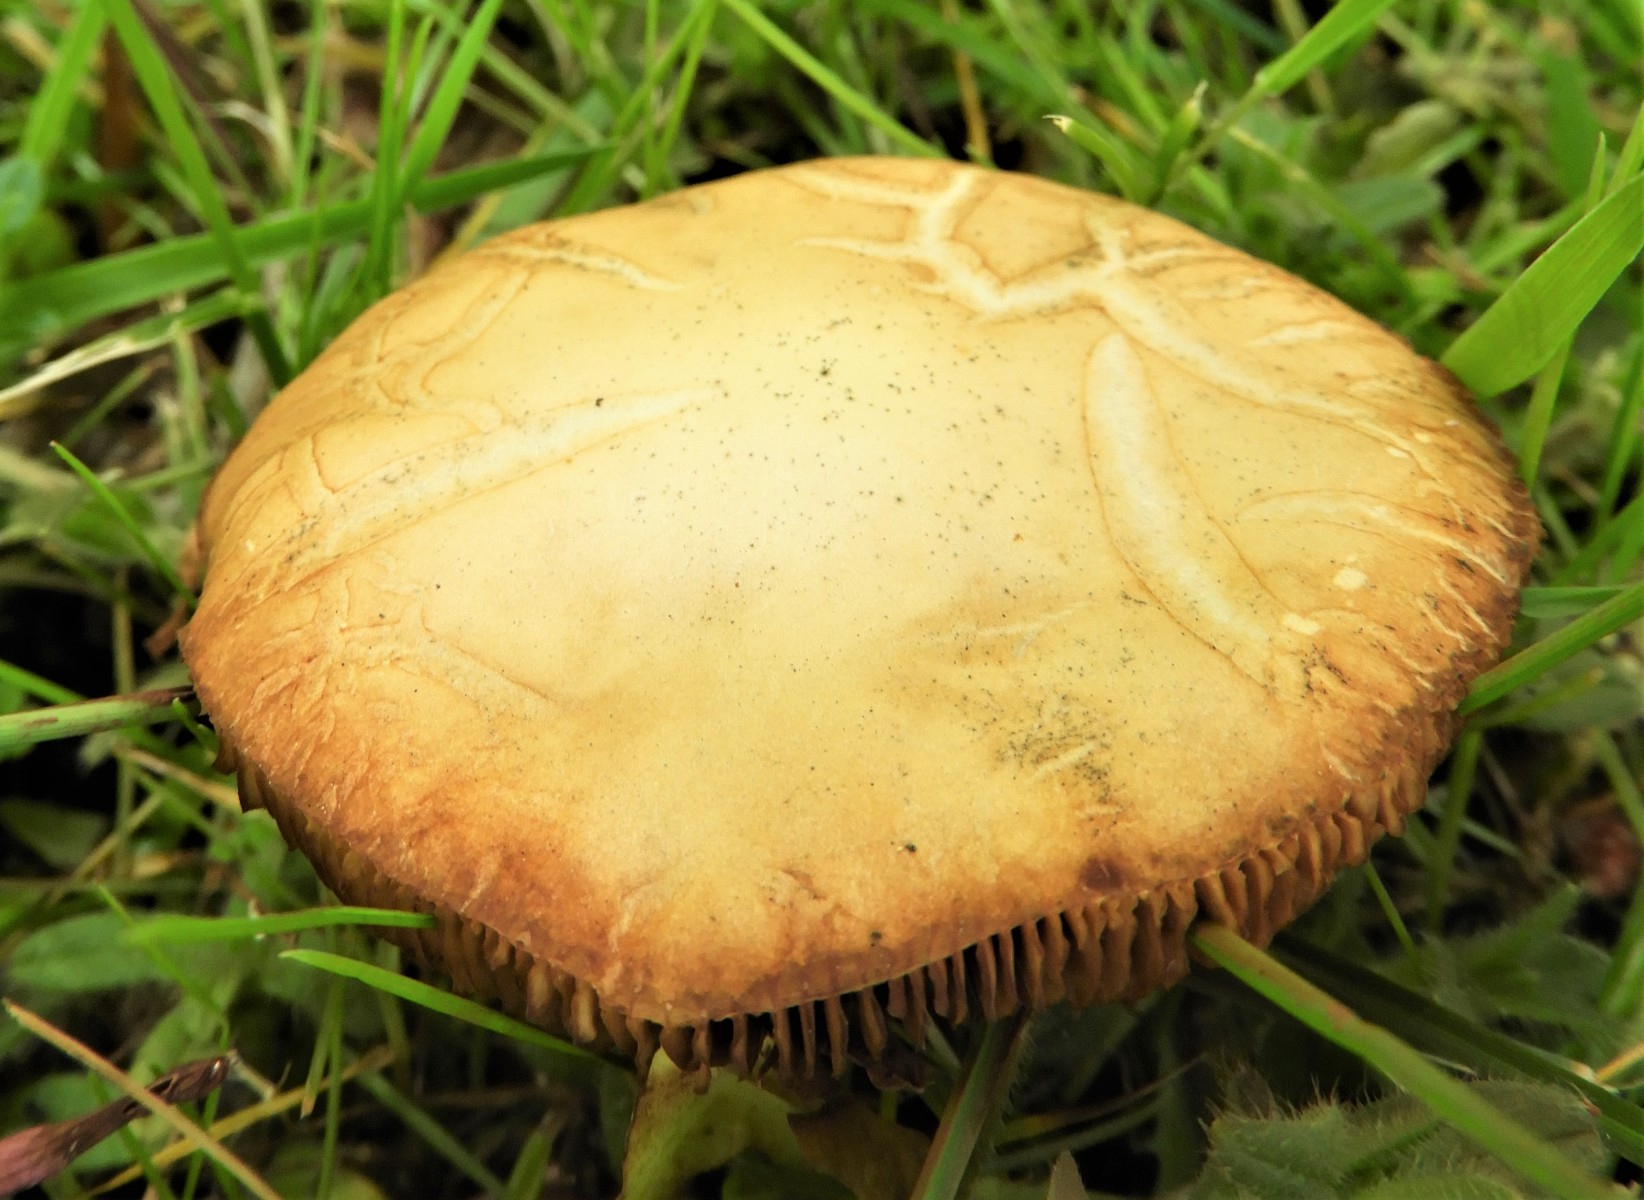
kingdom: Fungi
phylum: Basidiomycota
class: Agaricomycetes
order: Agaricales
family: Strophariaceae
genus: Agrocybe
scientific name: Agrocybe praecox
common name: tidlig agerhat
